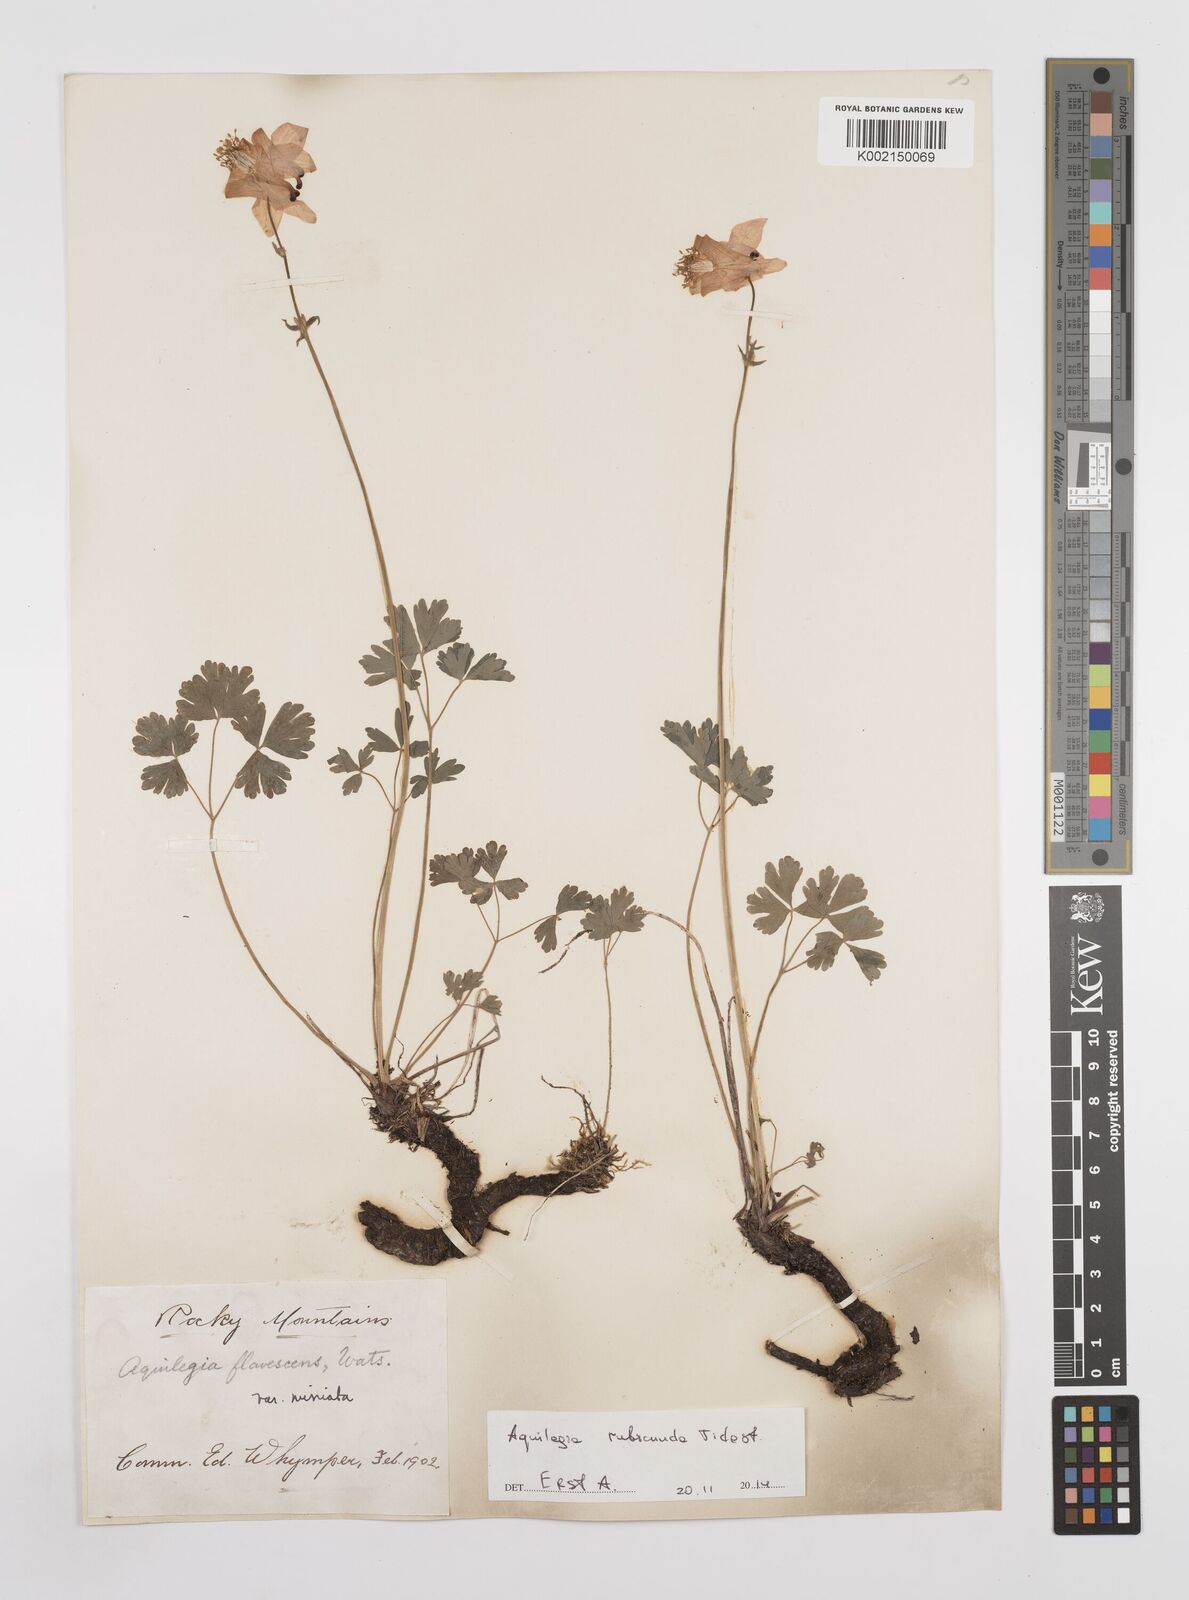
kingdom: Plantae
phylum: Tracheophyta
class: Magnoliopsida
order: Ranunculales
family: Ranunculaceae
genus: Aquilegia
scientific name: Aquilegia flavescens
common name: Yellow columbine
